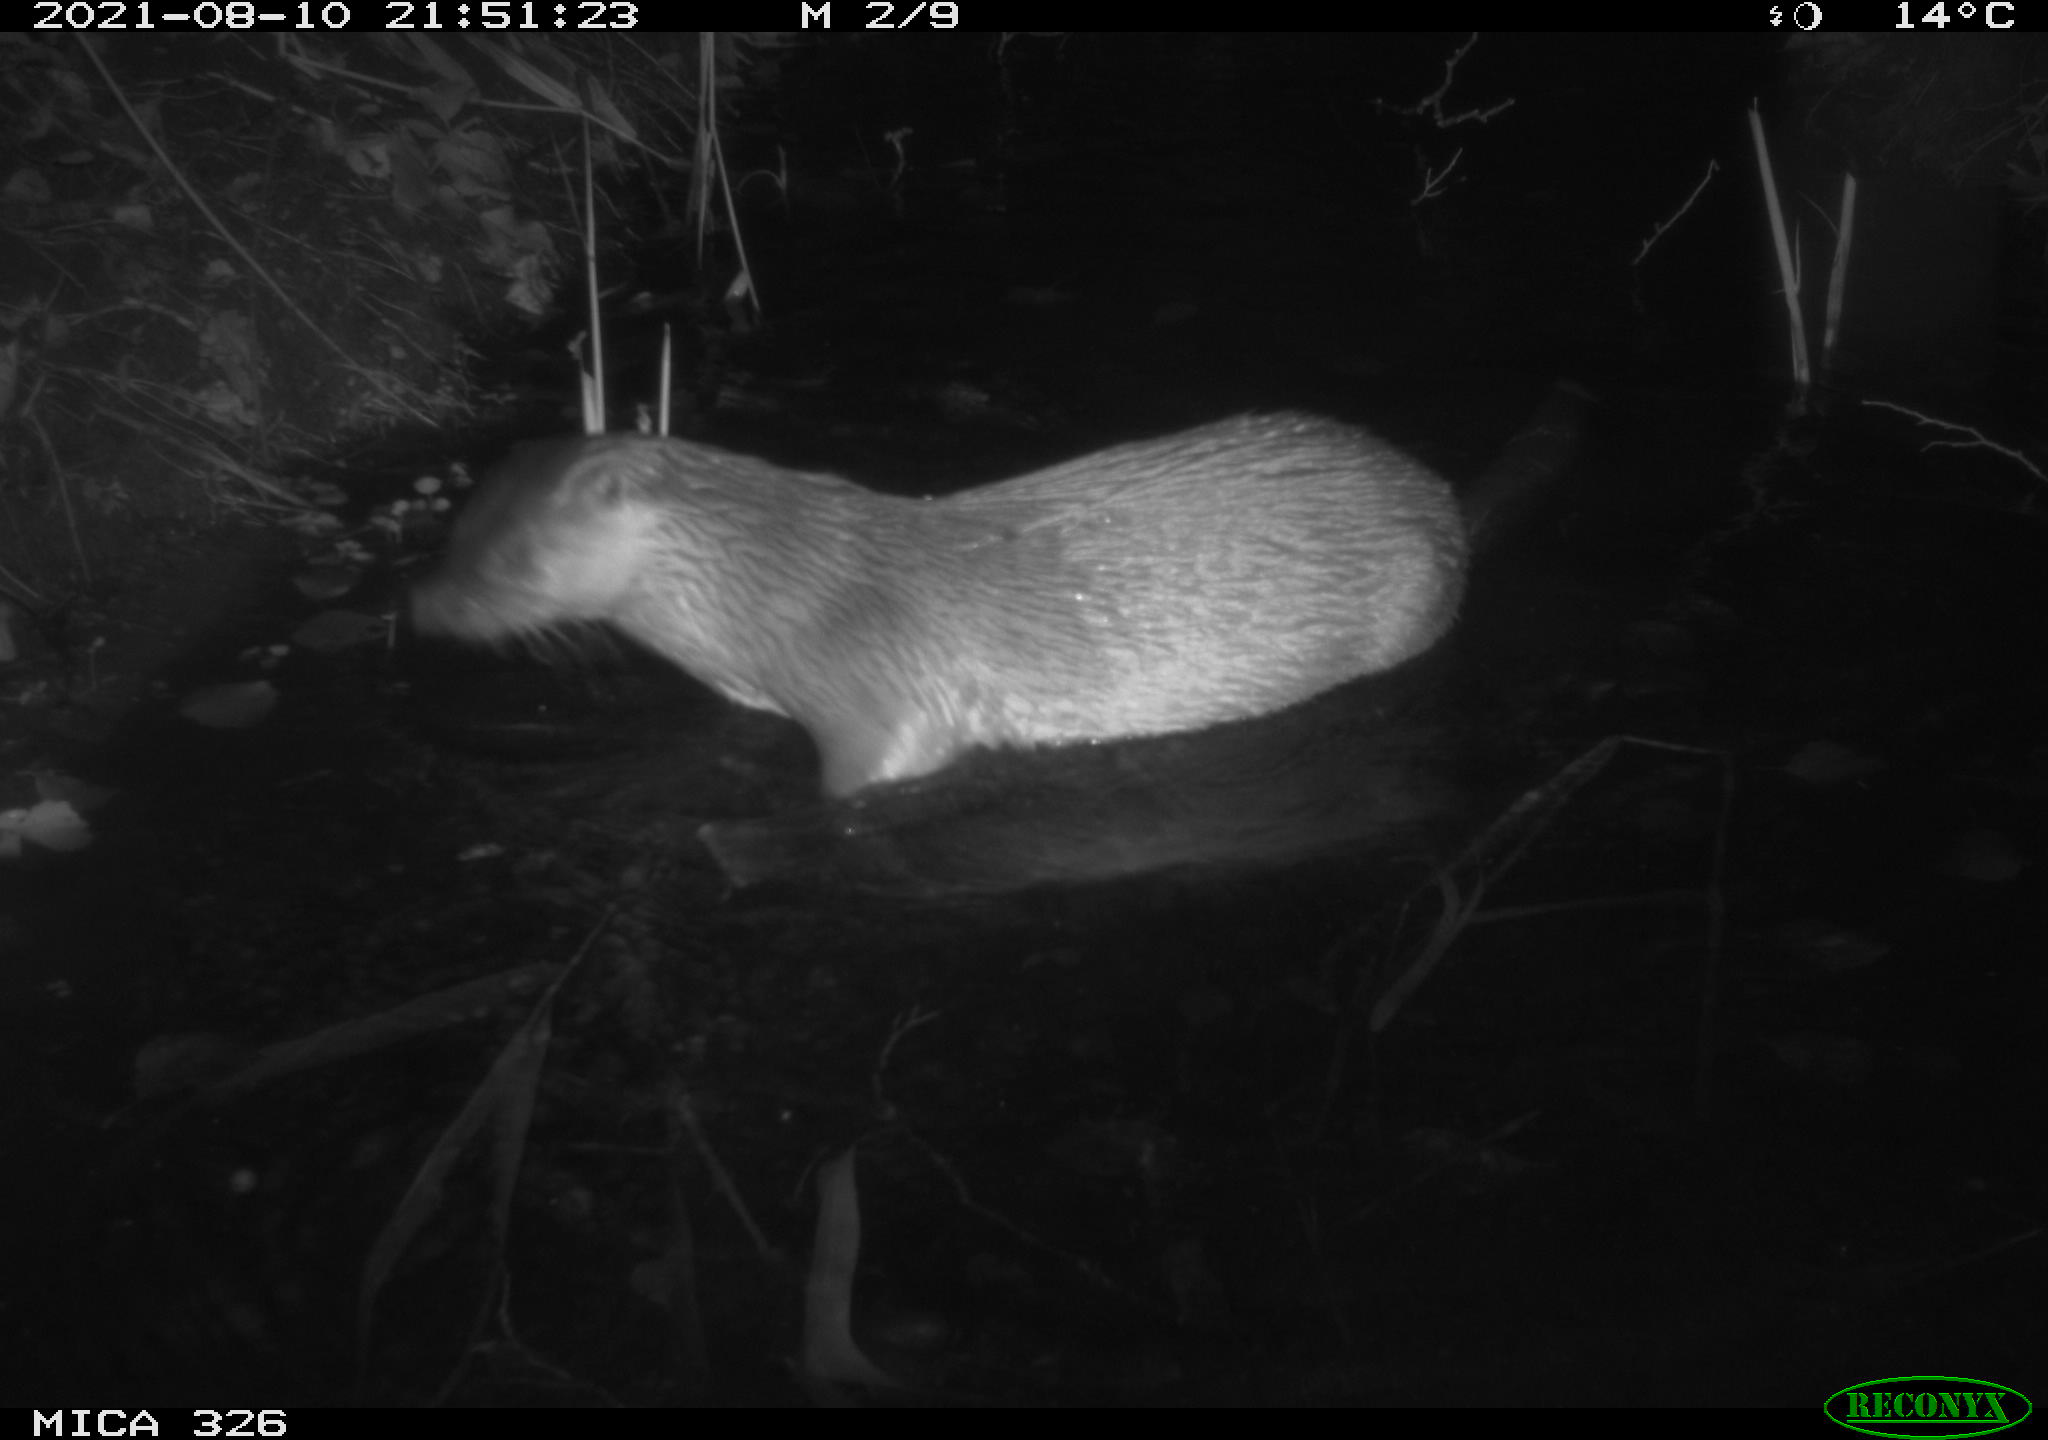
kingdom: Animalia
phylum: Chordata
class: Mammalia
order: Carnivora
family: Mustelidae
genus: Lutra
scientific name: Lutra lutra
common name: European otter
